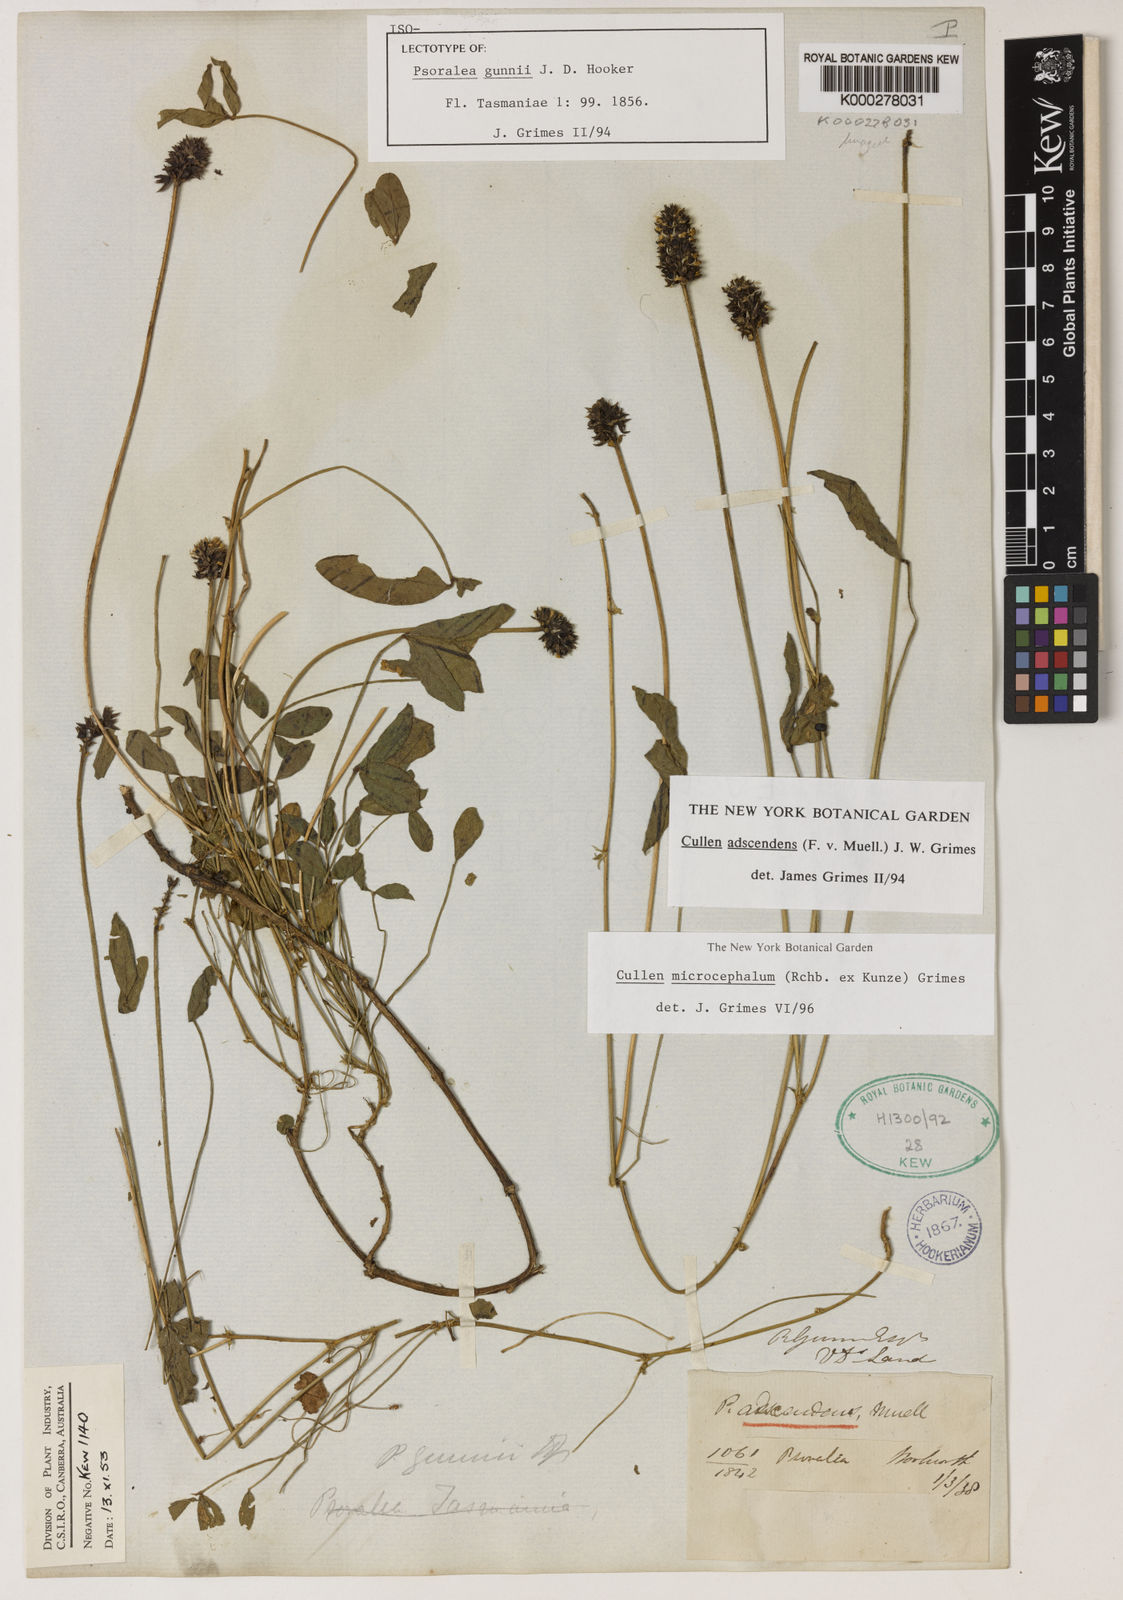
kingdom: Plantae
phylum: Tracheophyta
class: Magnoliopsida
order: Fabales
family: Fabaceae
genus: Cullen
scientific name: Cullen microcephalum
